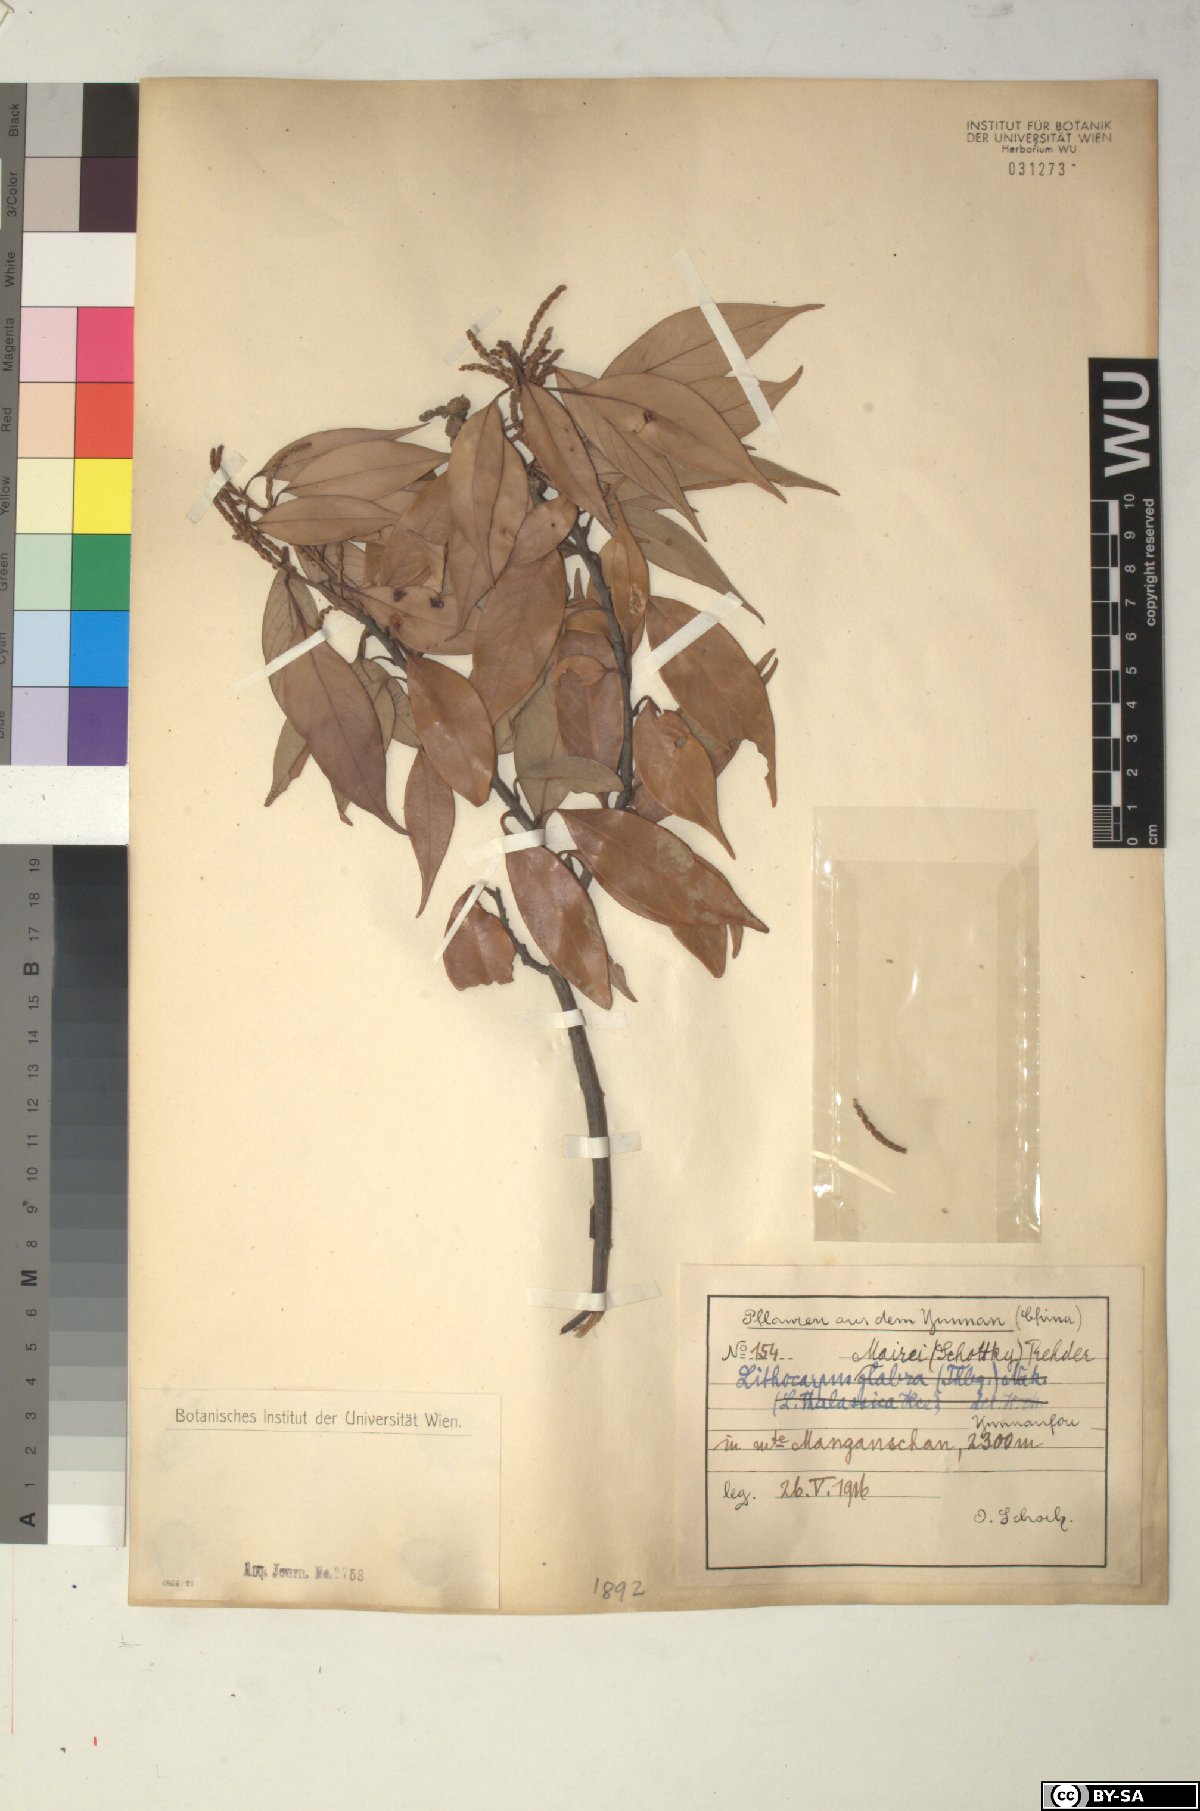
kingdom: Plantae
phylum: Tracheophyta
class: Magnoliopsida
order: Fagales
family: Fagaceae
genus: Lithocarpus
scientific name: Lithocarpus mairei
